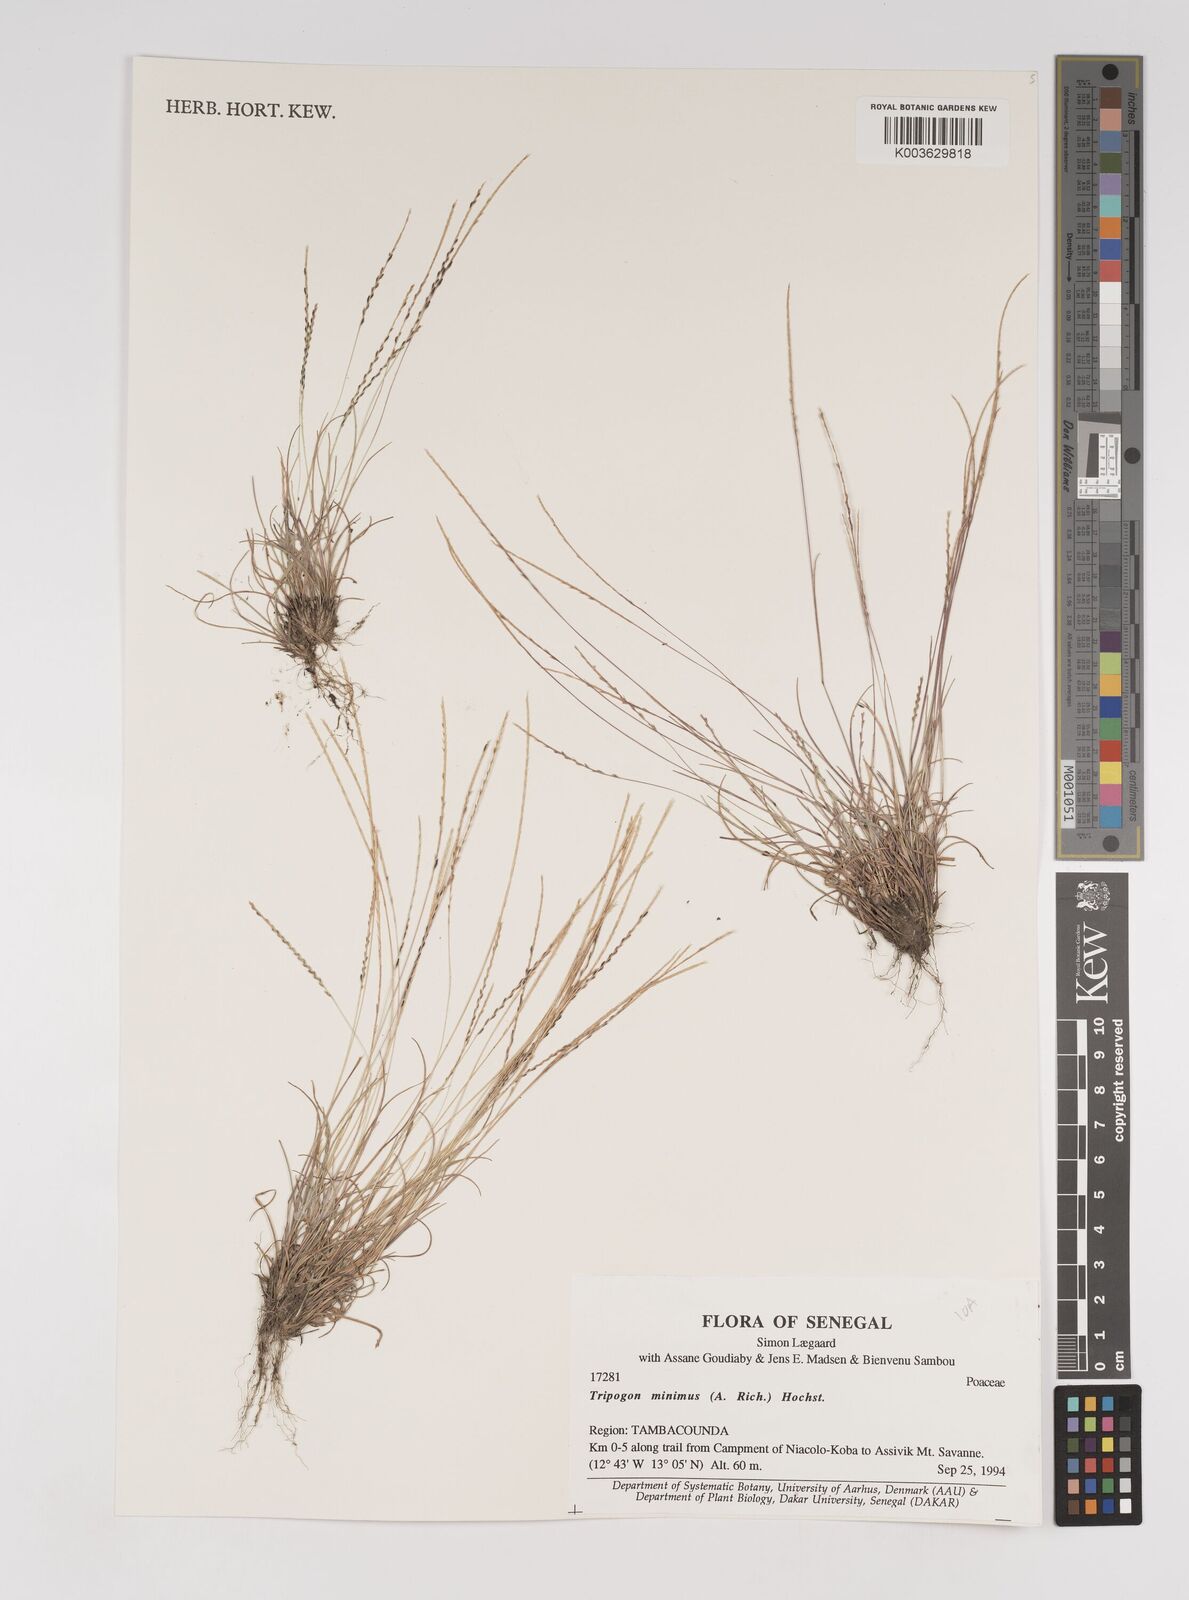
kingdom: Plantae
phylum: Tracheophyta
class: Liliopsida
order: Poales
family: Poaceae
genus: Tripogonella
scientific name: Tripogonella minima
